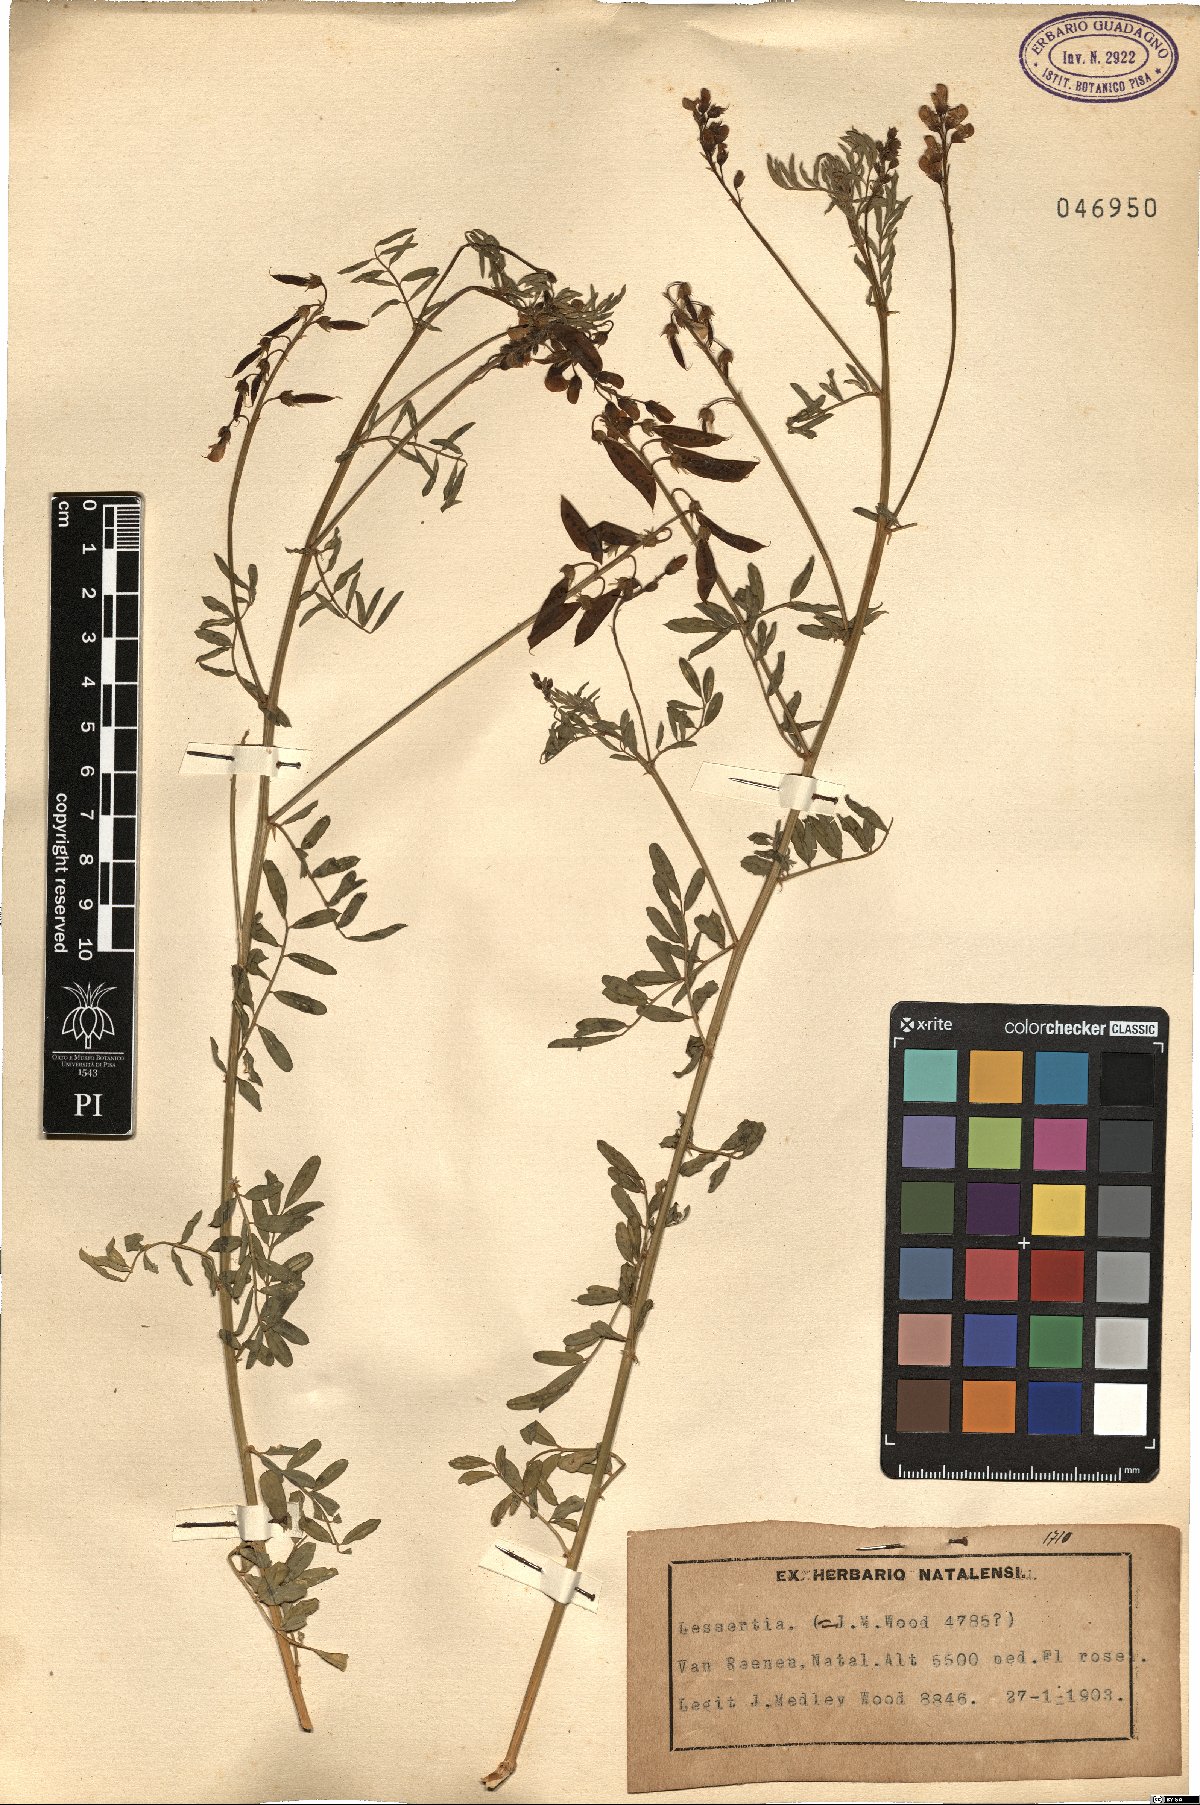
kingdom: Plantae
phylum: Tracheophyta
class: Magnoliopsida
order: Fabales
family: Fabaceae
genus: Lessertia
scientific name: Lessertia
